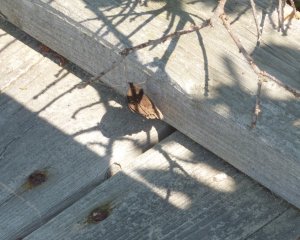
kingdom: Animalia
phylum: Arthropoda
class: Insecta
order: Lepidoptera
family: Nymphalidae
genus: Cercyonis
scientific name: Cercyonis pegala
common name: Common Wood-Nymph
